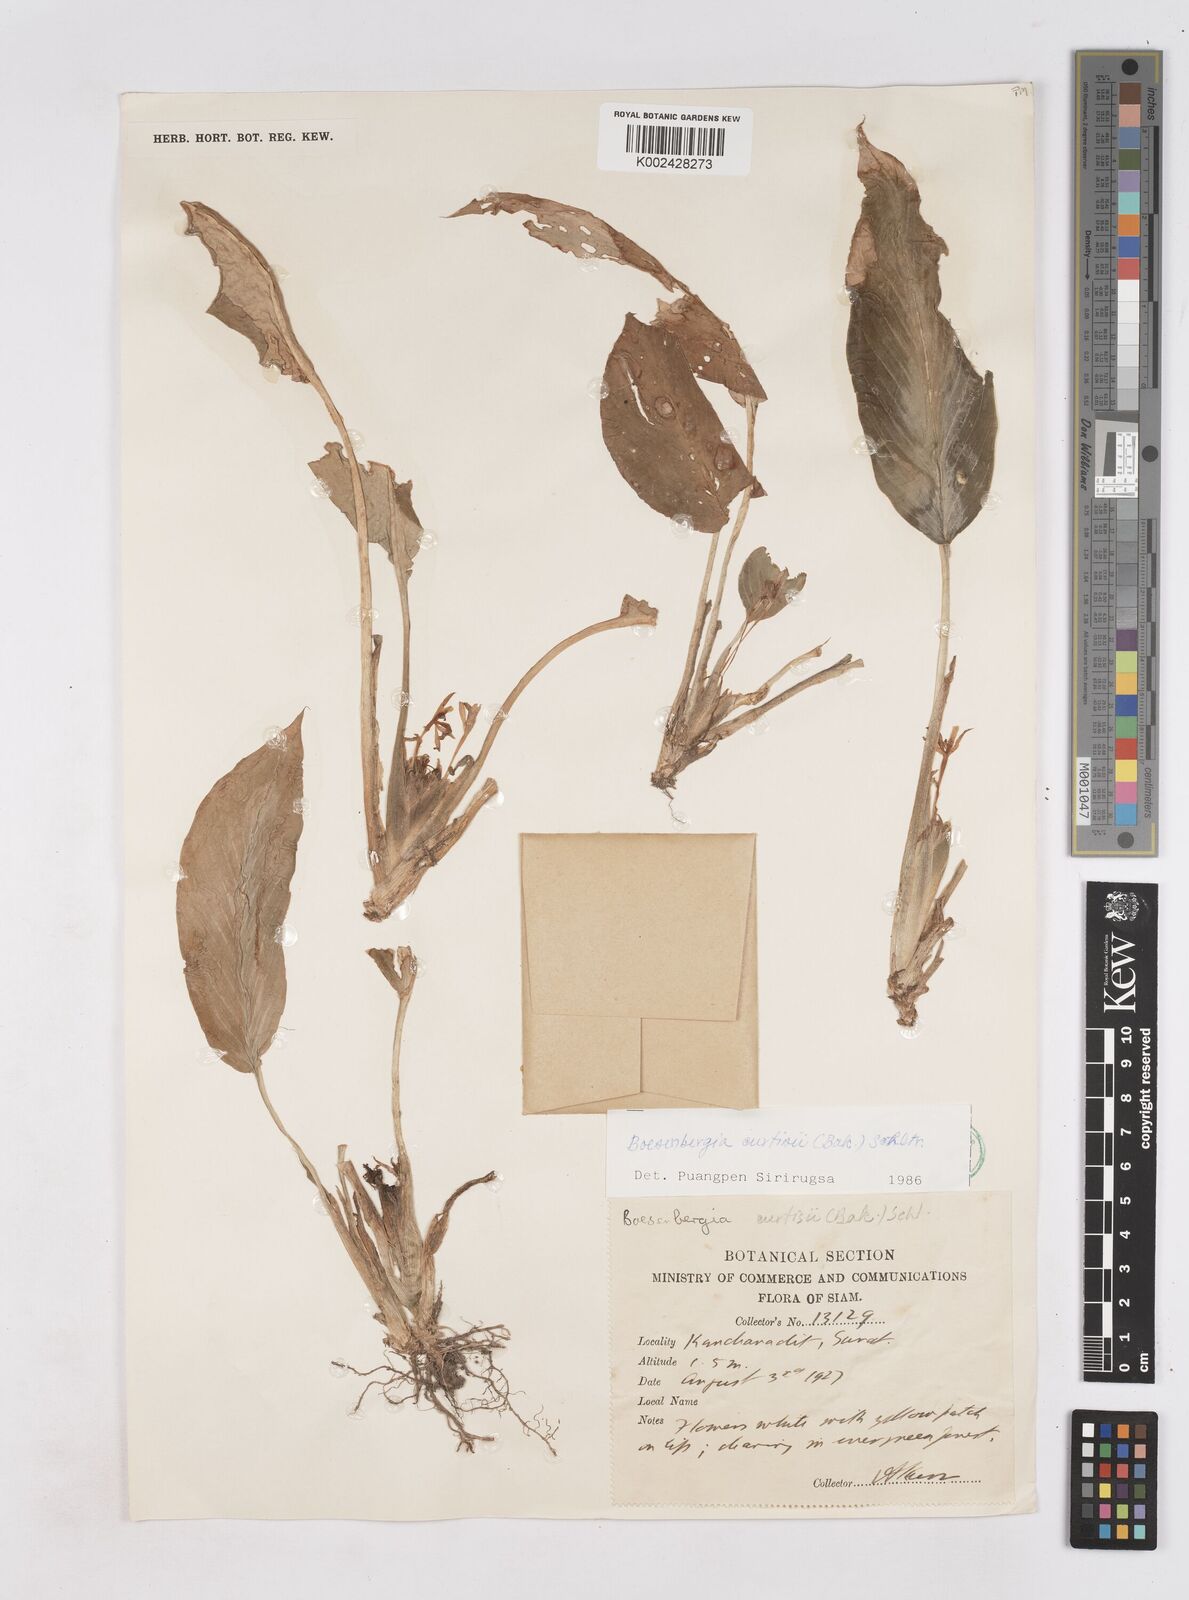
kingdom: Plantae
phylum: Tracheophyta
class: Liliopsida
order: Zingiberales
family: Zingiberaceae
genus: Boesenbergia
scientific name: Boesenbergia curtisii
